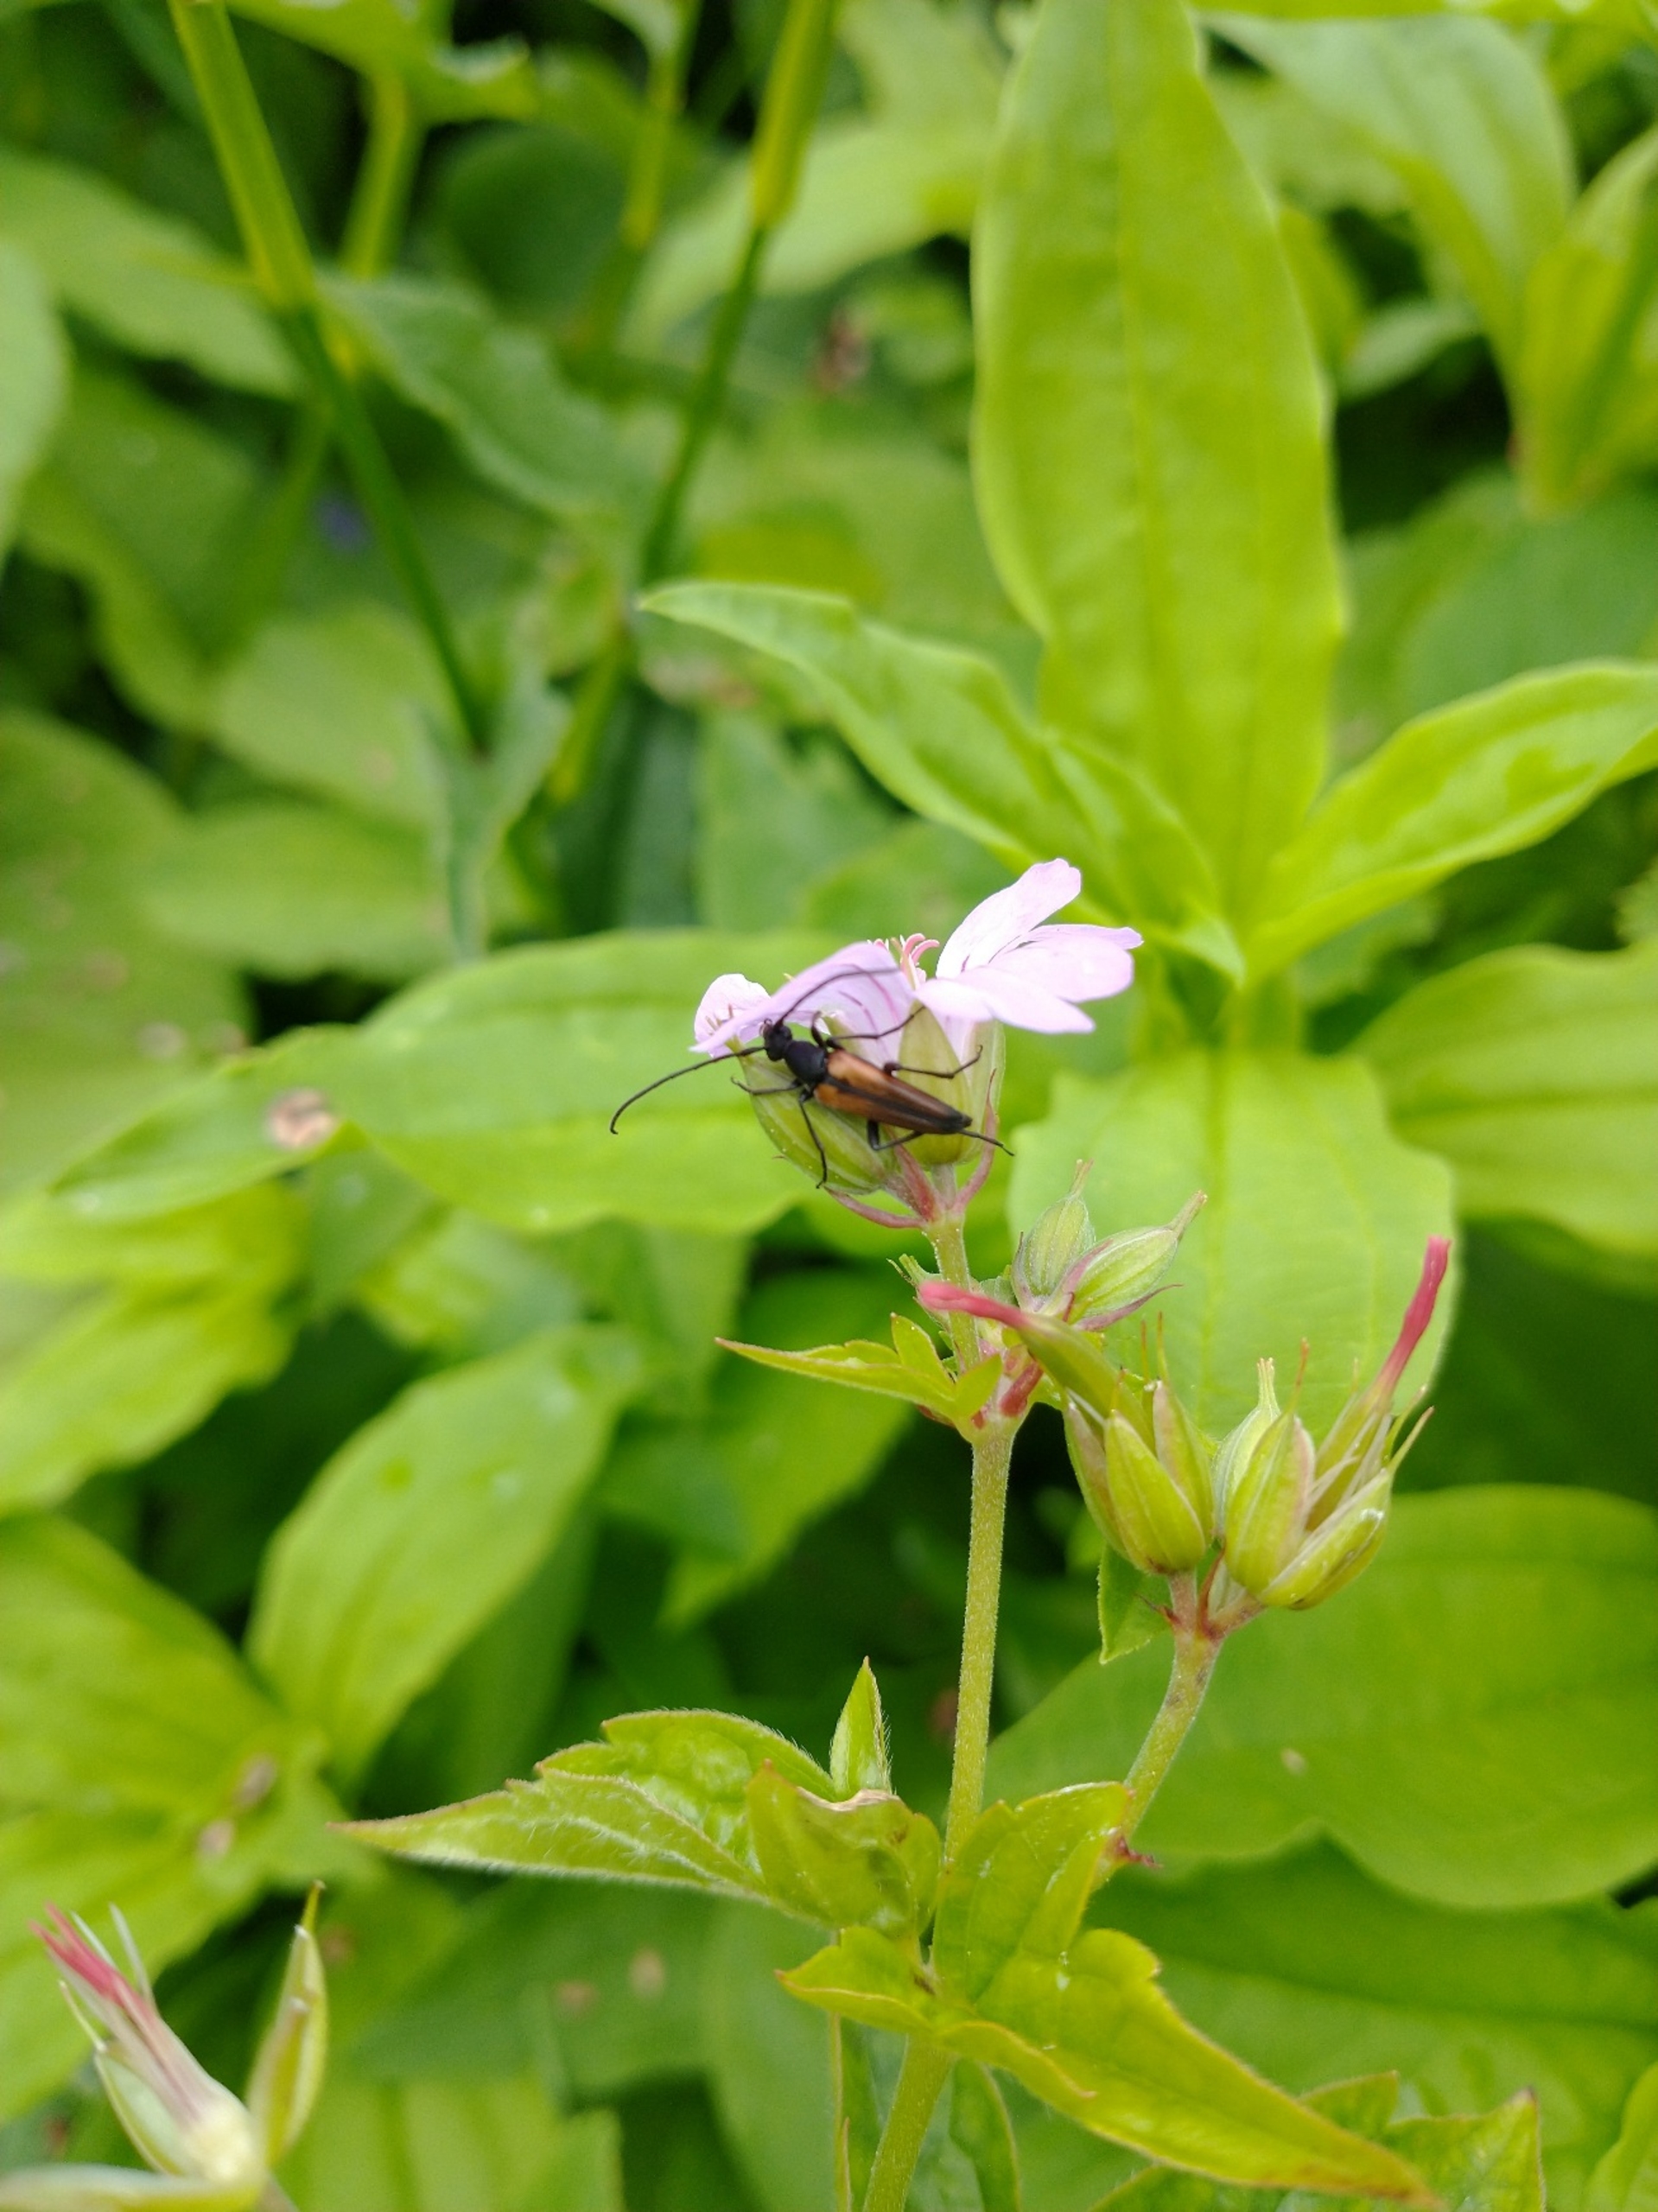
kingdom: Animalia
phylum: Arthropoda
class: Insecta
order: Coleoptera
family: Cerambycidae
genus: Stenurella
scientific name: Stenurella melanura
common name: Sortsømmet blomsterbuk
